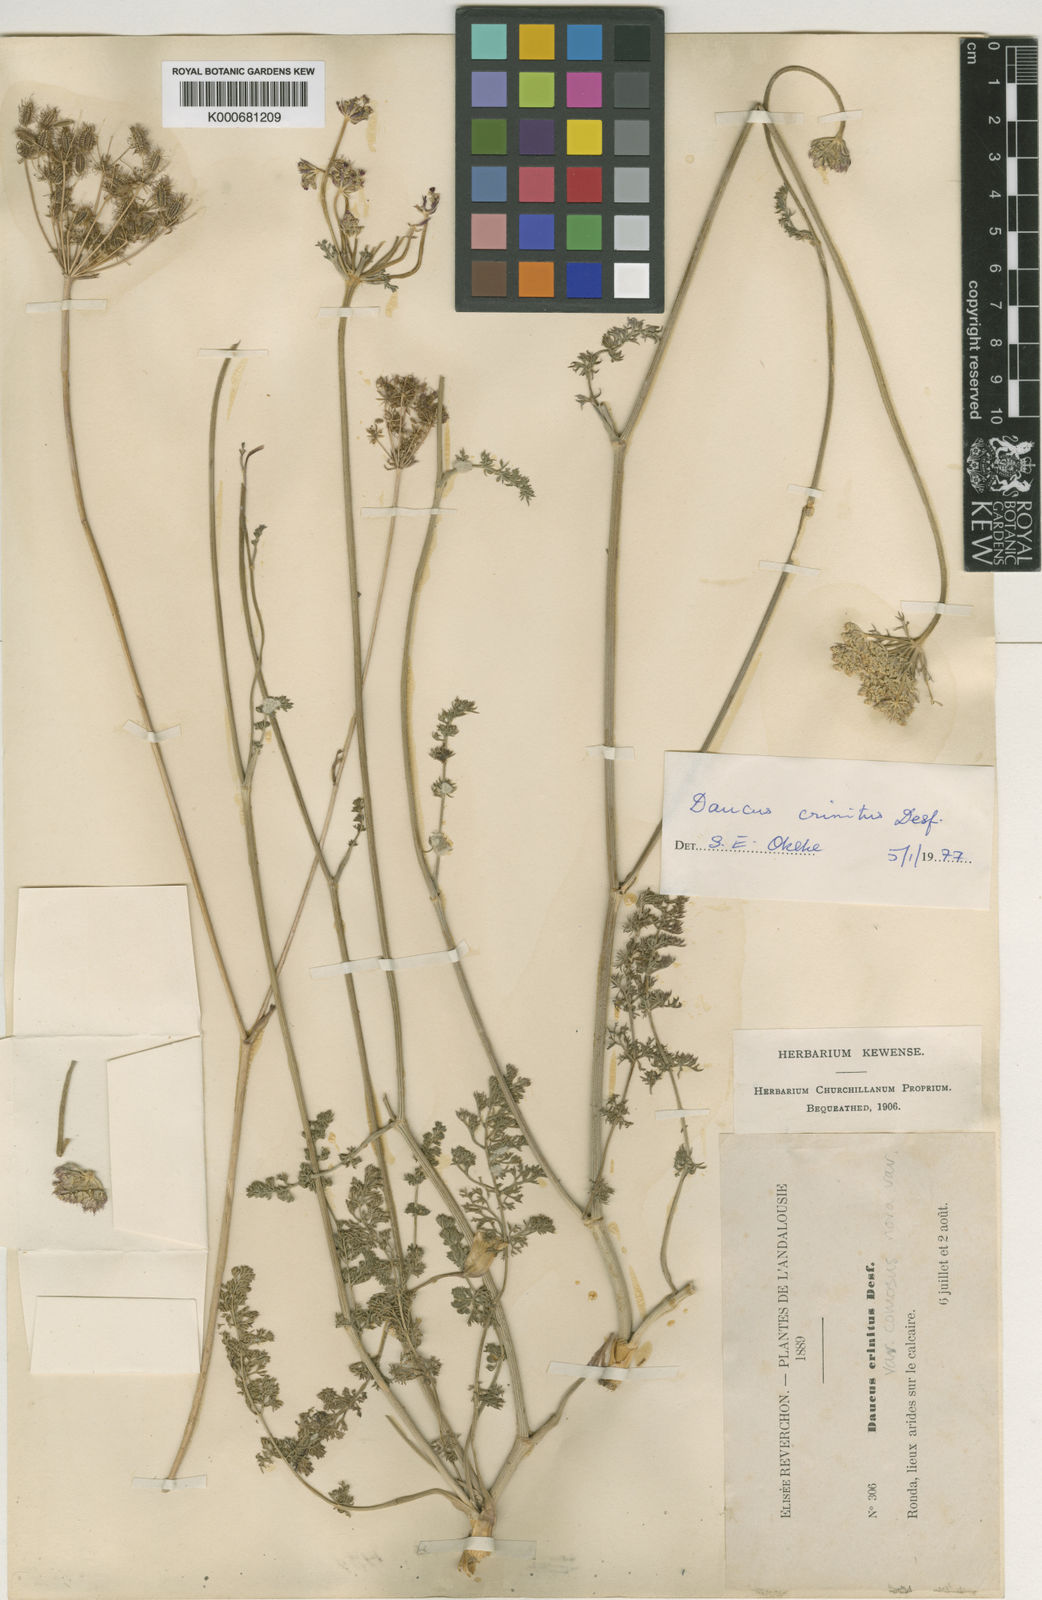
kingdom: Plantae
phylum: Tracheophyta
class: Magnoliopsida
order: Apiales
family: Apiaceae
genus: Daucus
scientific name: Daucus crinitus
